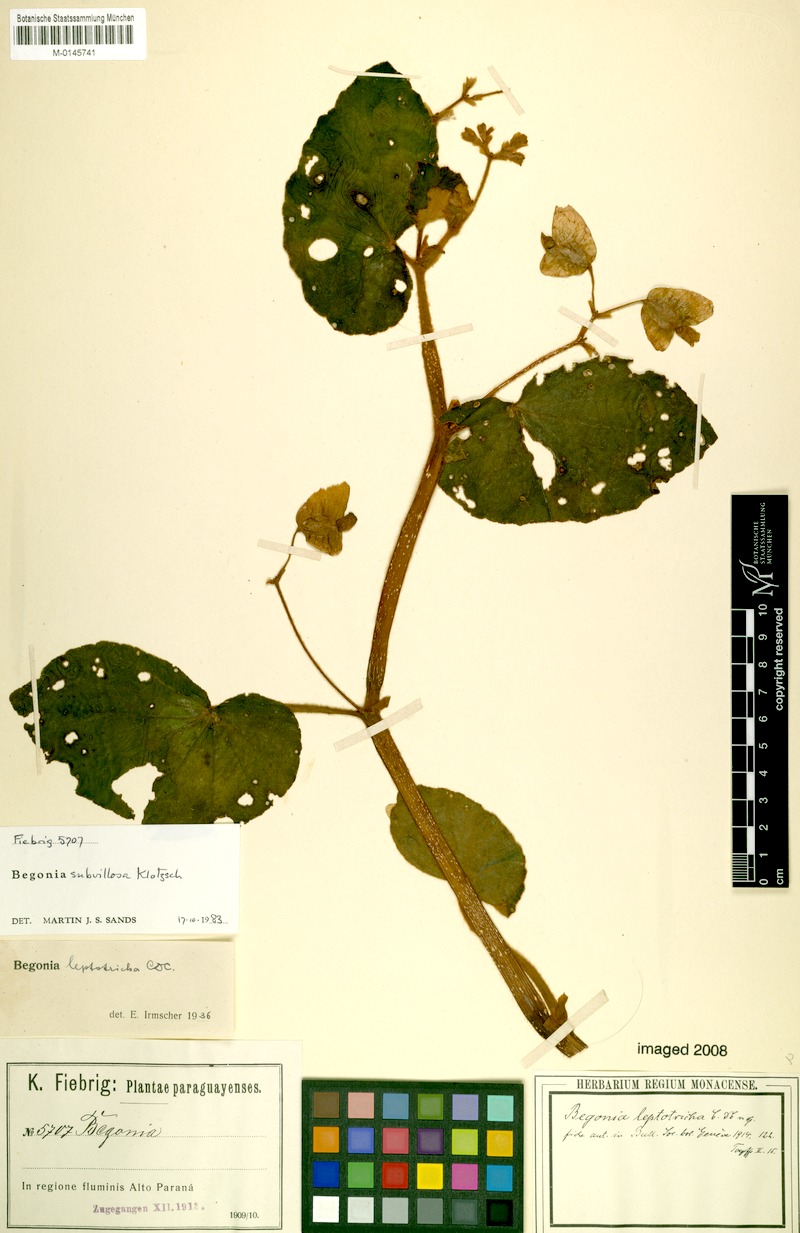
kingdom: Plantae
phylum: Tracheophyta
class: Magnoliopsida
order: Cucurbitales
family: Begoniaceae
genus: Begonia
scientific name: Begonia subvillosa
